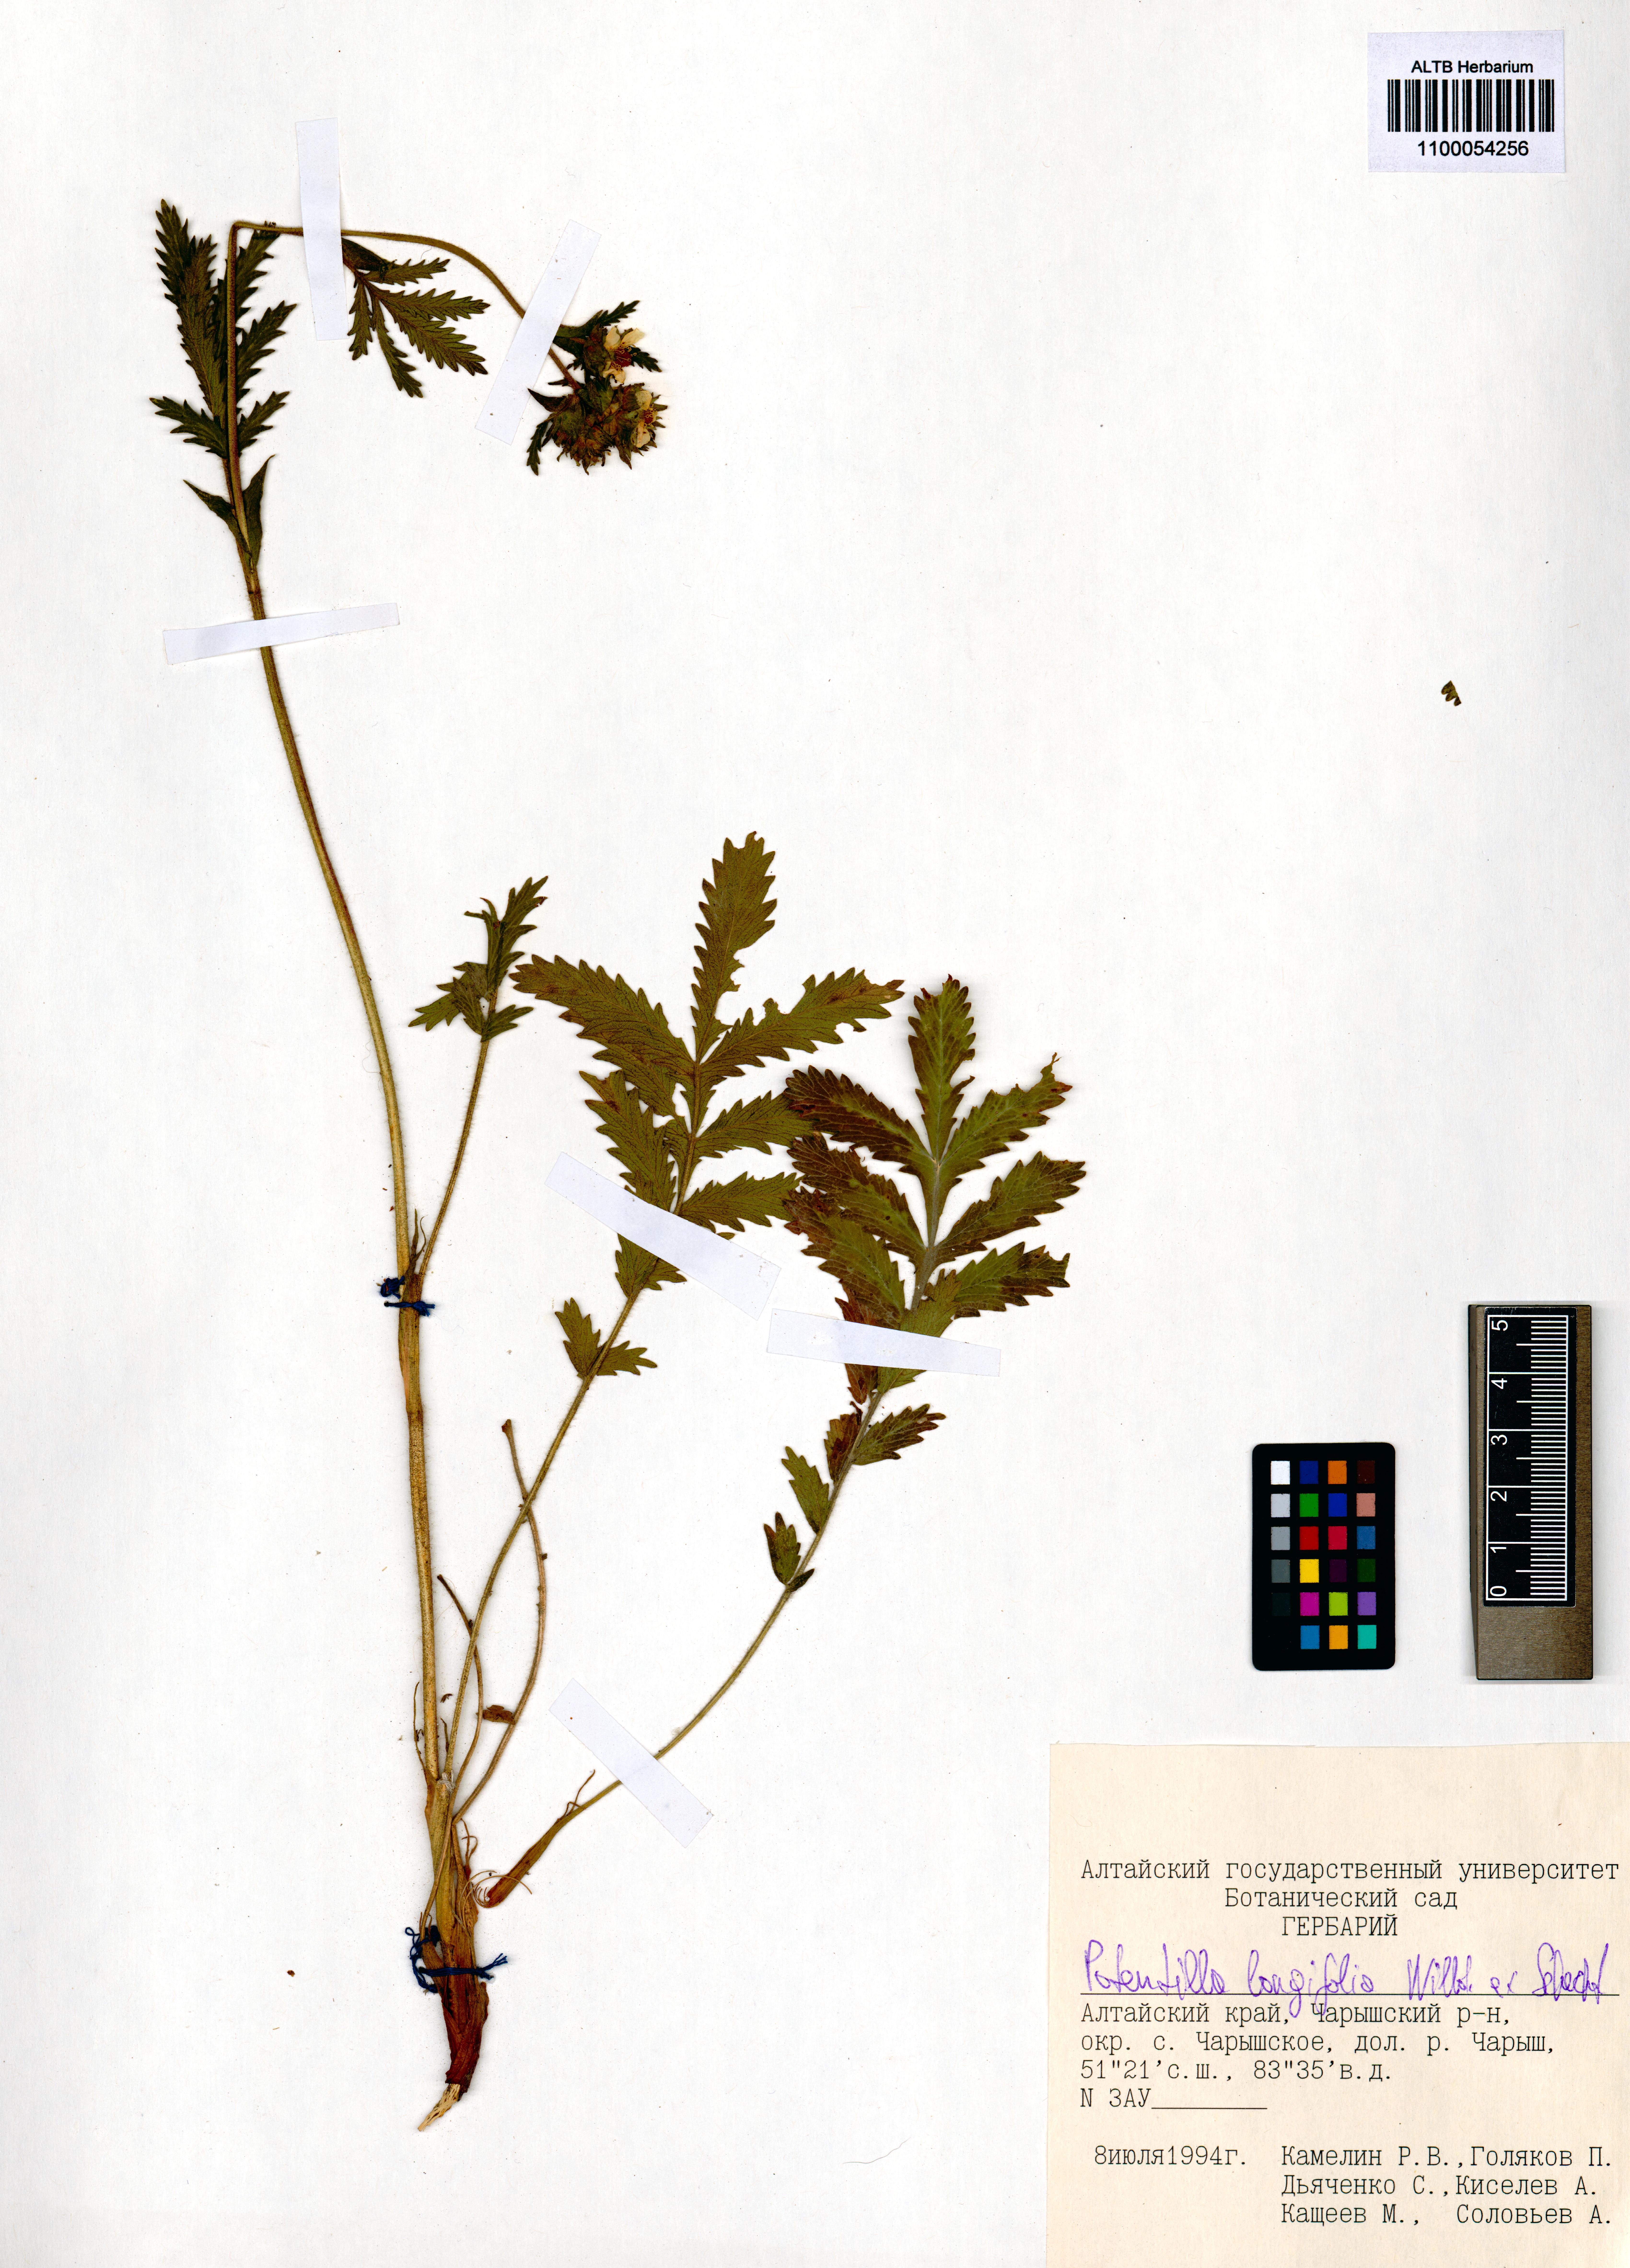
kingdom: Plantae
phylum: Tracheophyta
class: Magnoliopsida
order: Rosales
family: Rosaceae
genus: Potentilla
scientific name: Potentilla longifolia
